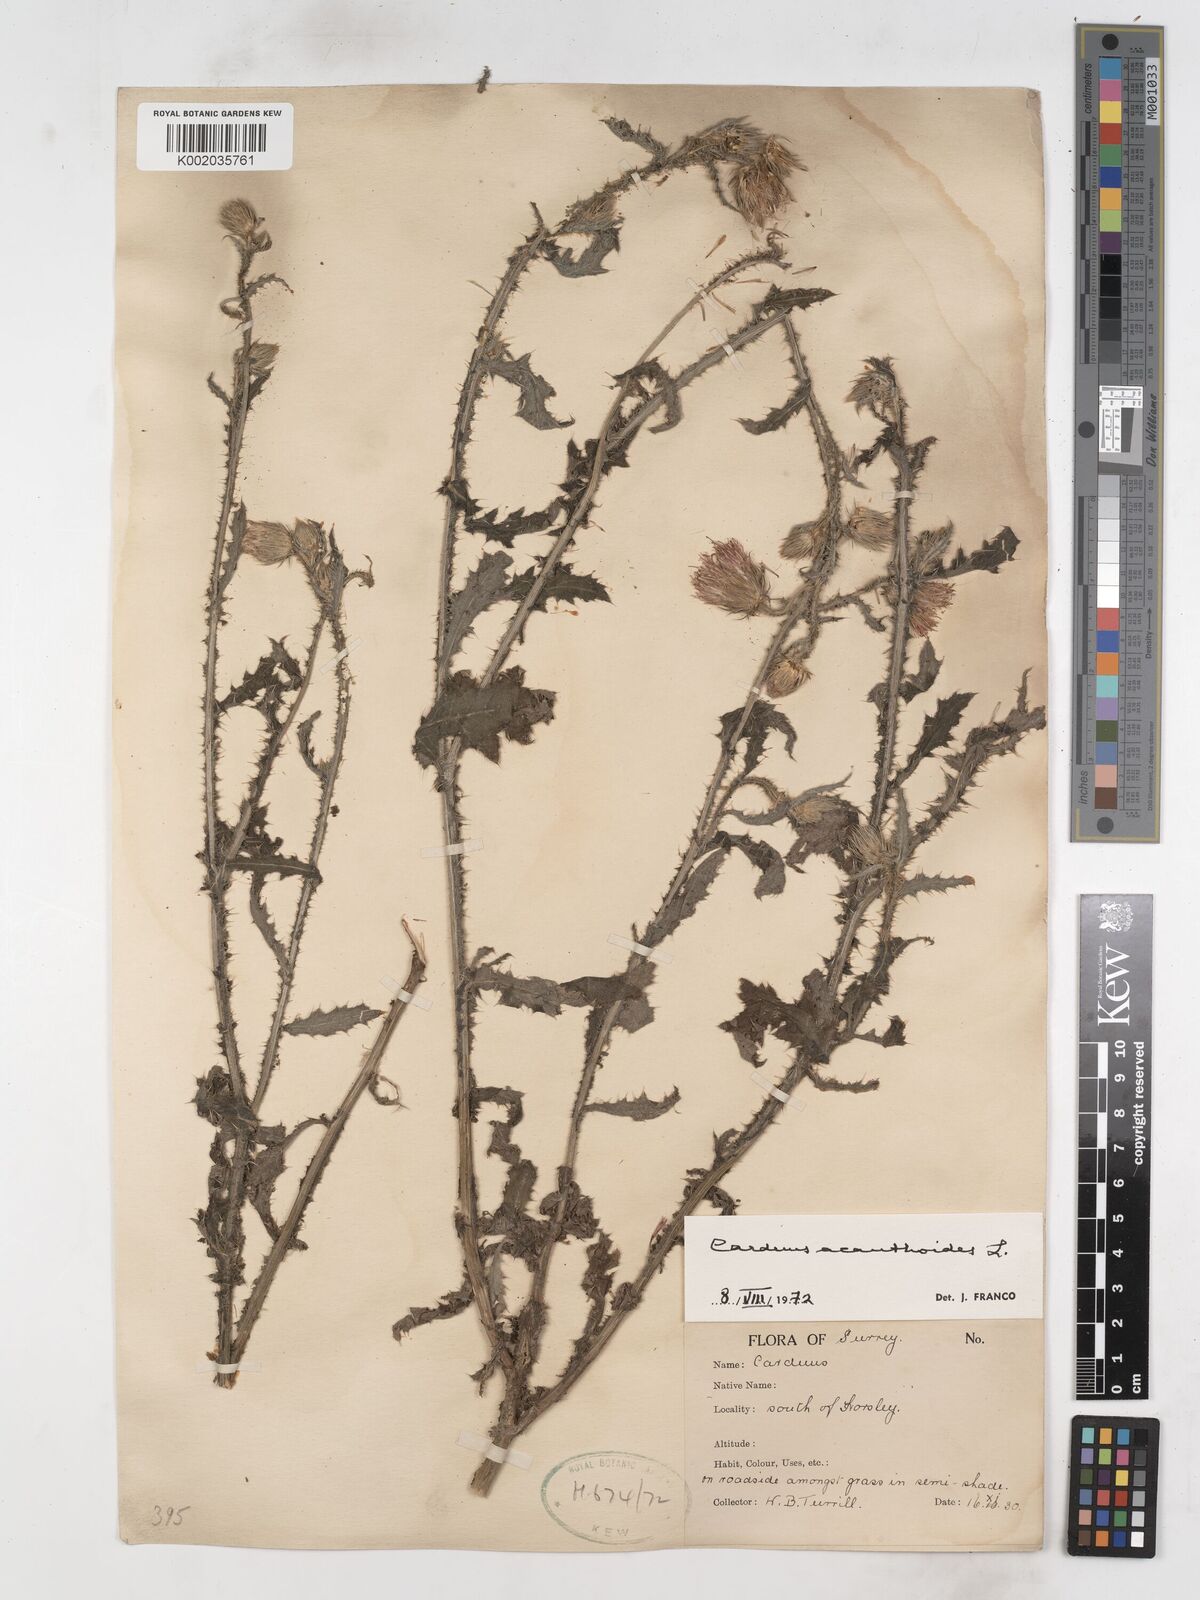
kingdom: Plantae
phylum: Tracheophyta
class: Magnoliopsida
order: Asterales
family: Asteraceae
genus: Carduus
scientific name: Carduus acanthoides
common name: Plumeless thistle
